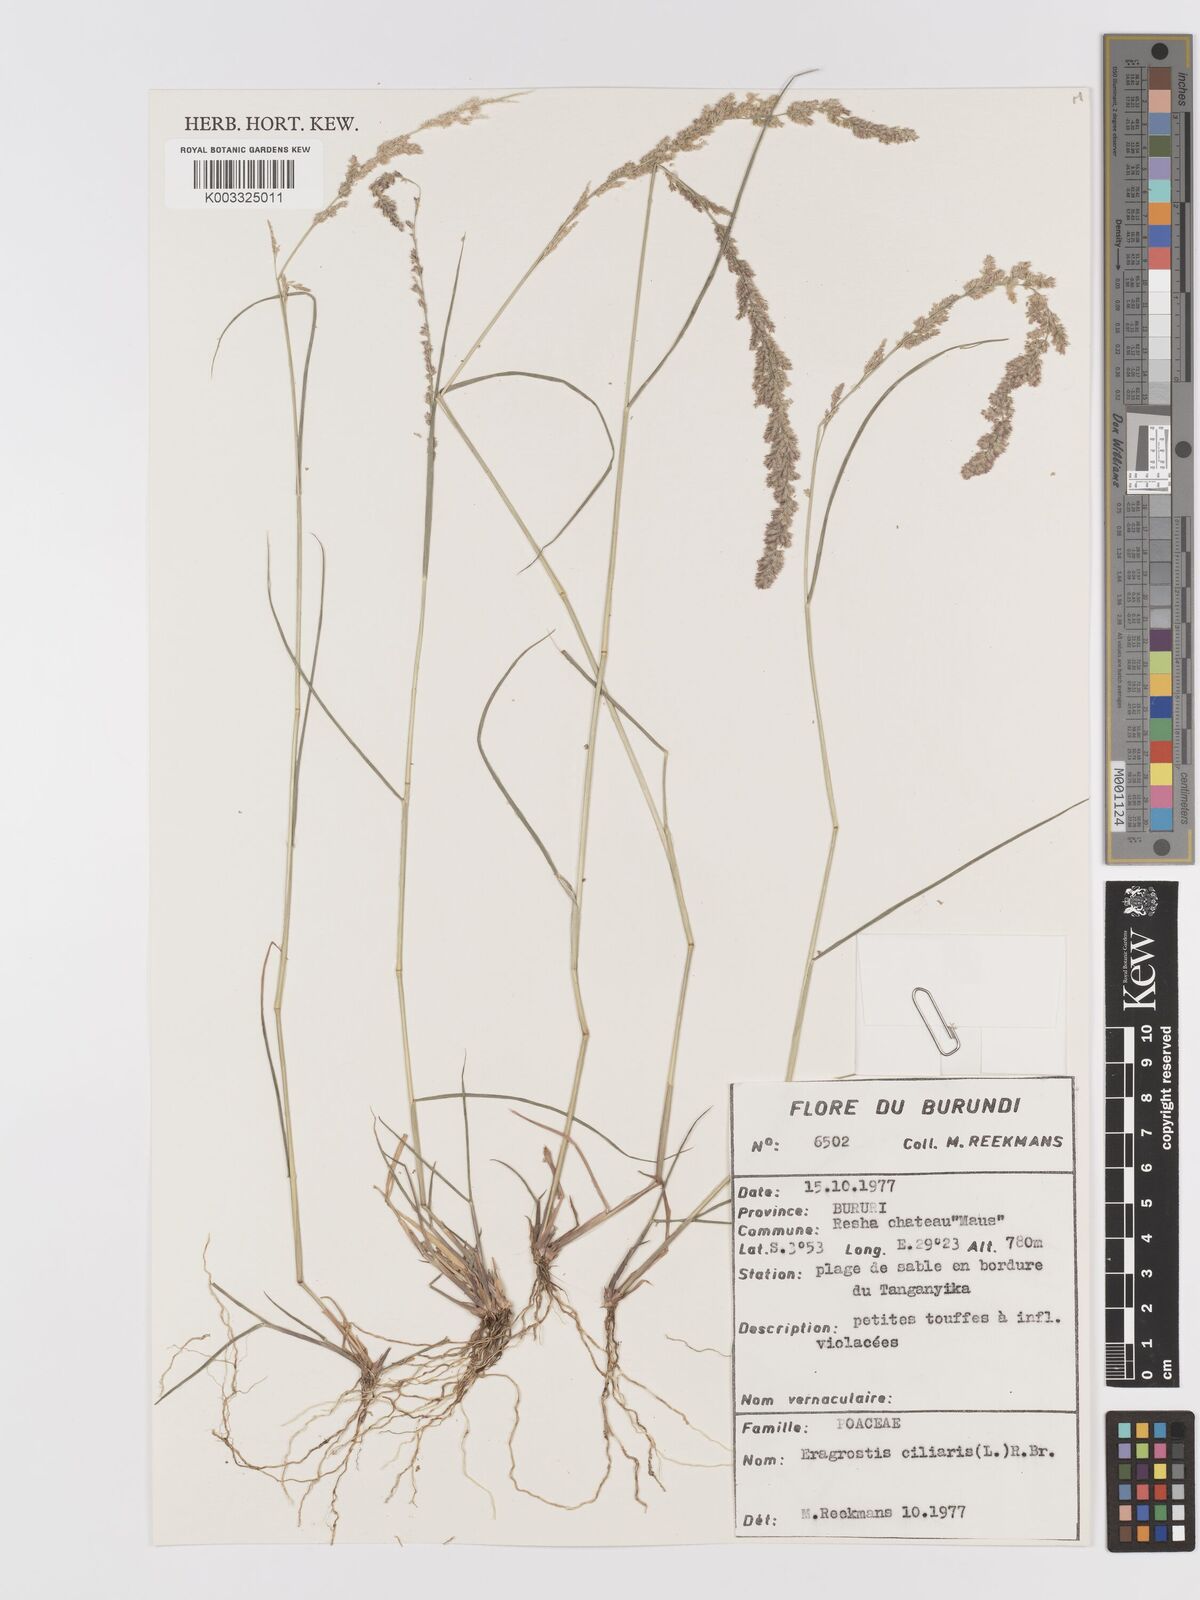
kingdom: Plantae
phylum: Tracheophyta
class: Liliopsida
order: Poales
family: Poaceae
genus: Eragrostis
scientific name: Eragrostis ciliaris
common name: Gophertail lovegrass
